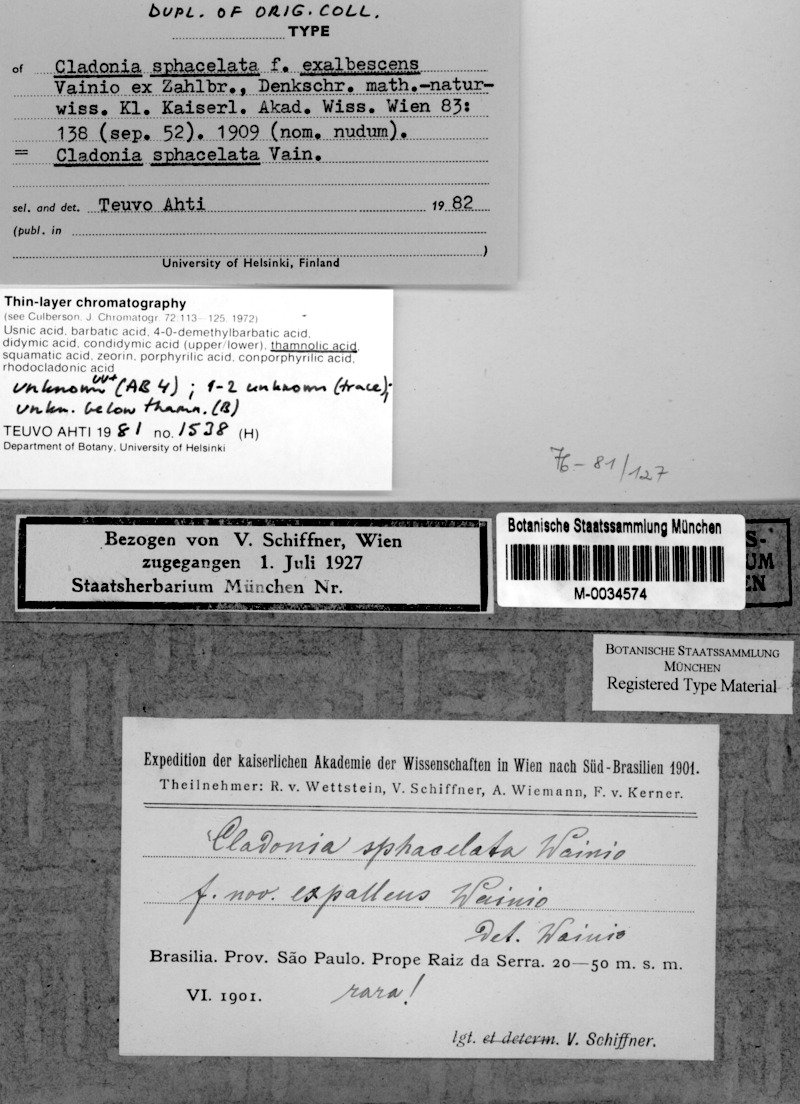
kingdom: Fungi
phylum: Ascomycota
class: Lecanoromycetes
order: Lecanorales
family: Cladoniaceae
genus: Cladonia
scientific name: Cladonia sphacelata
